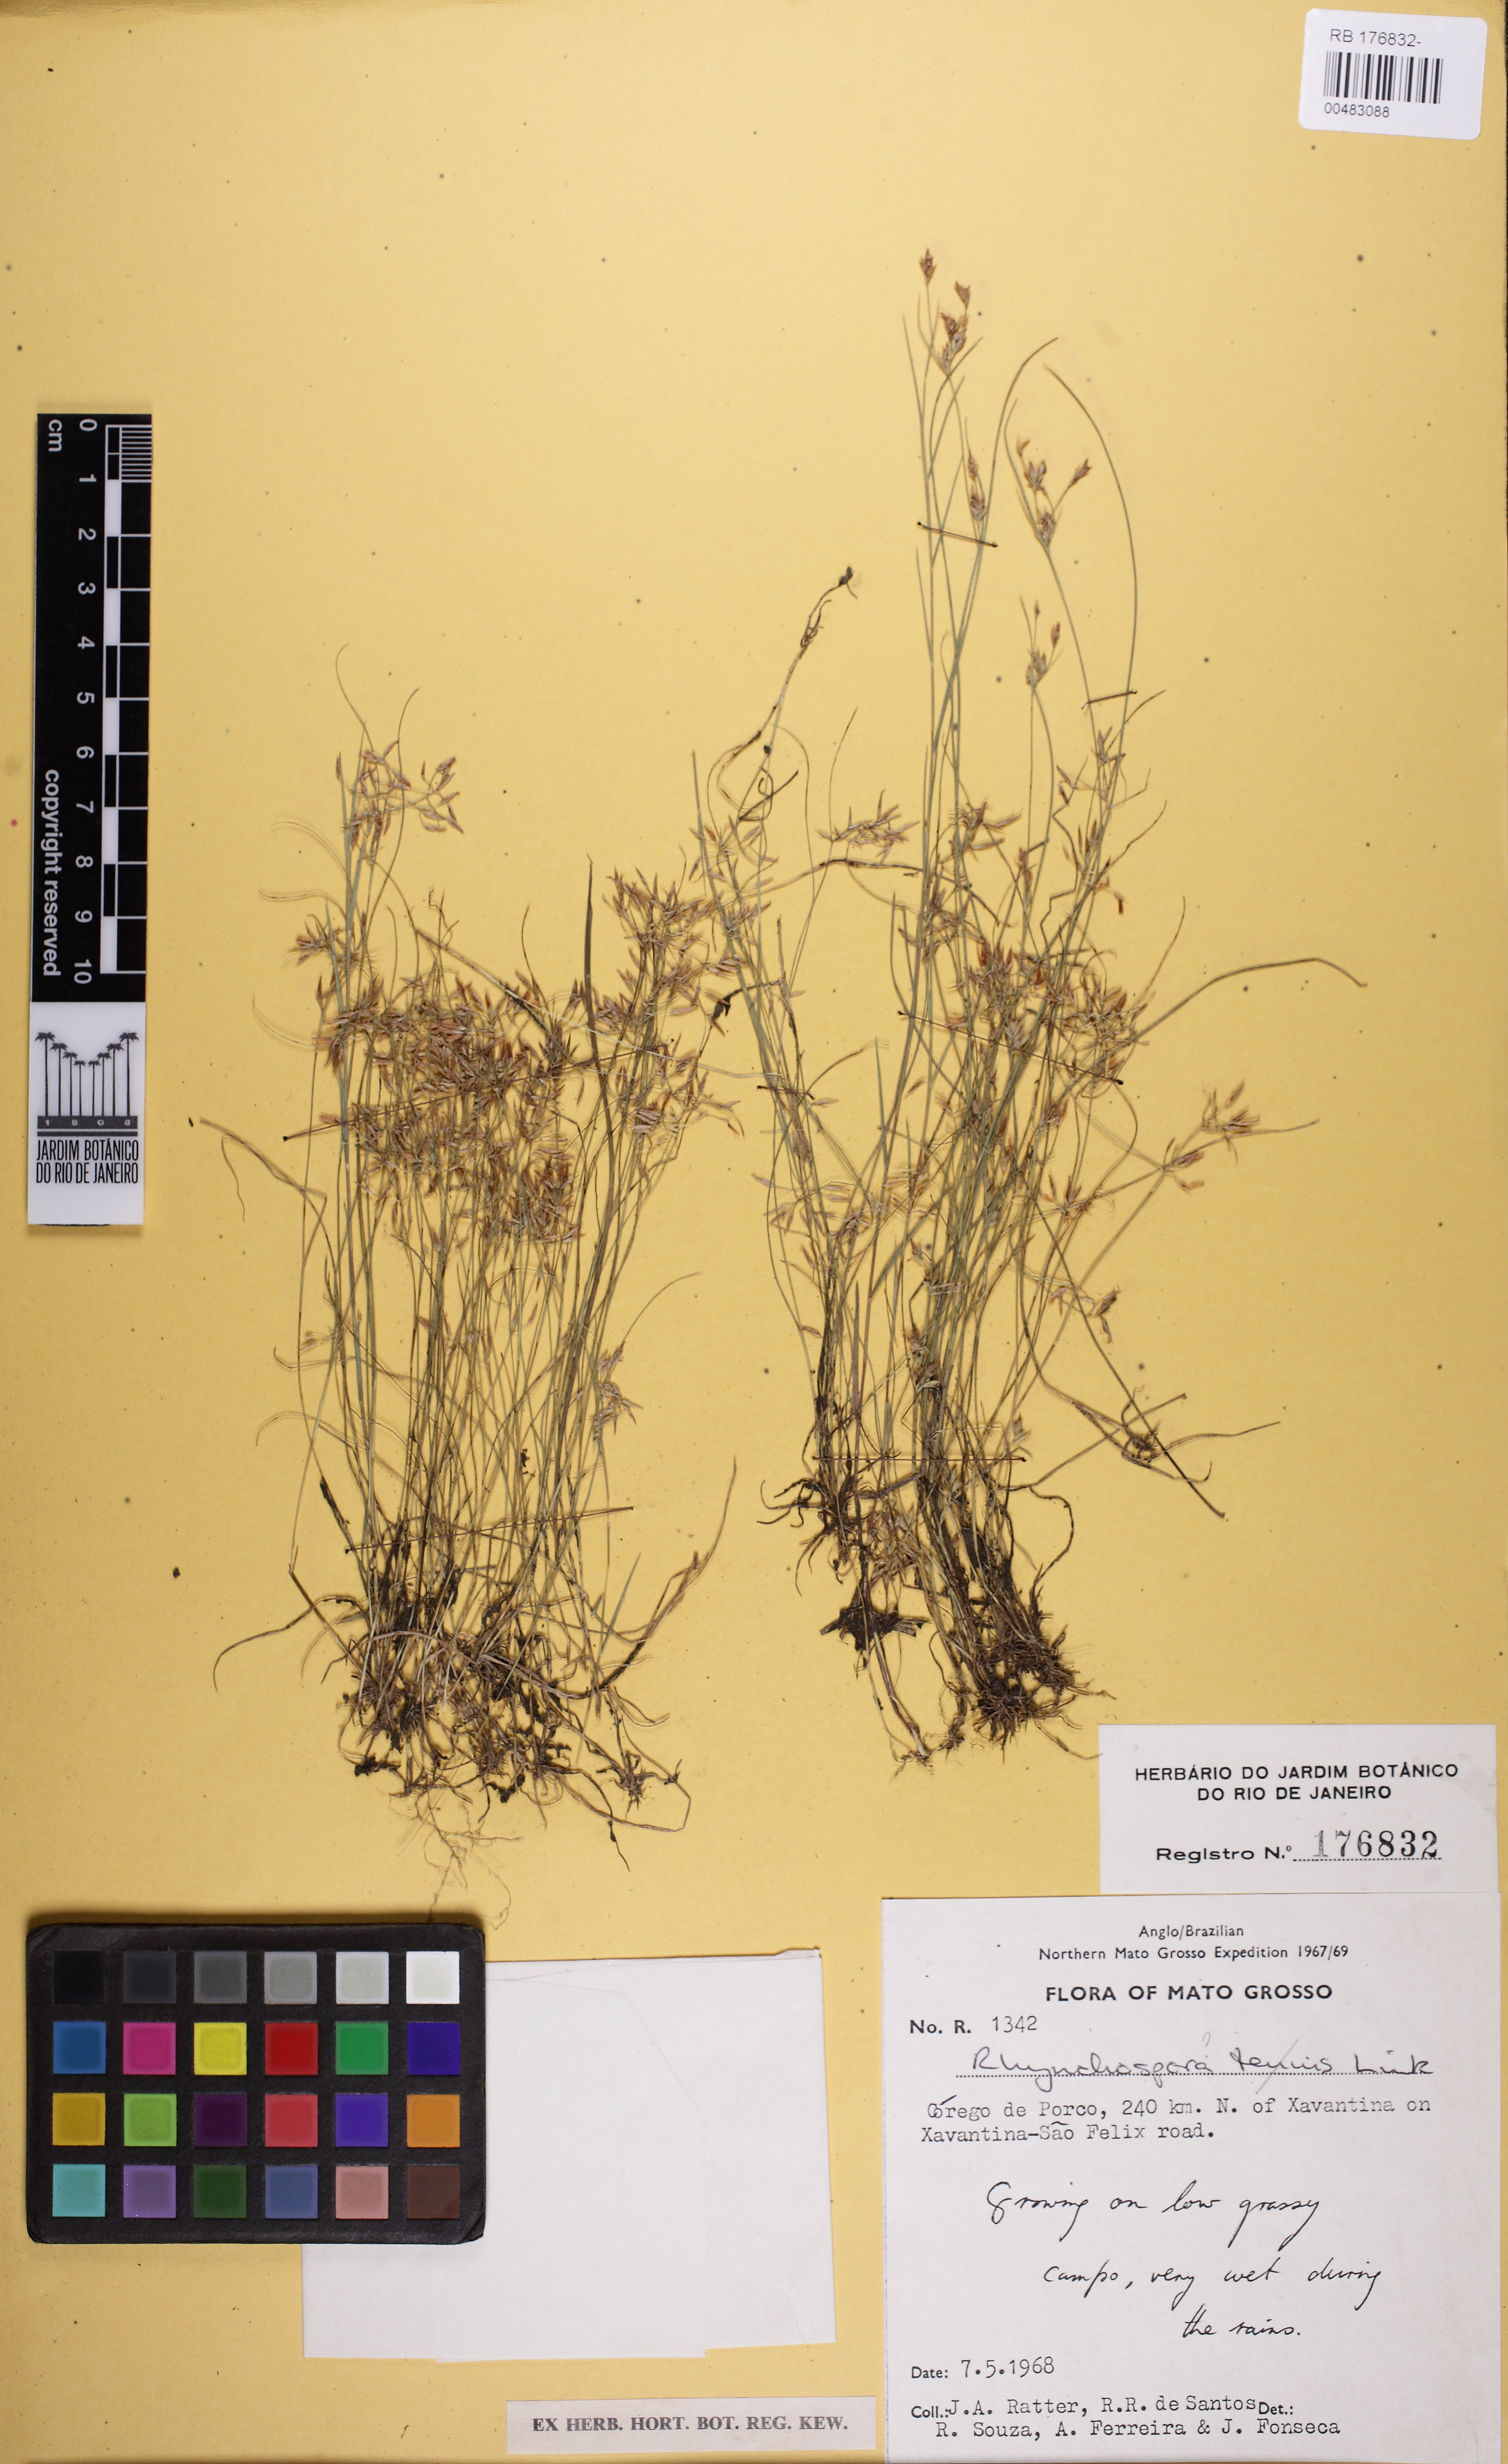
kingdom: Plantae
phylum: Tracheophyta
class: Liliopsida
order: Poales
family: Cyperaceae
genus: Rhynchospora
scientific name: Rhynchospora saxisavannicola
